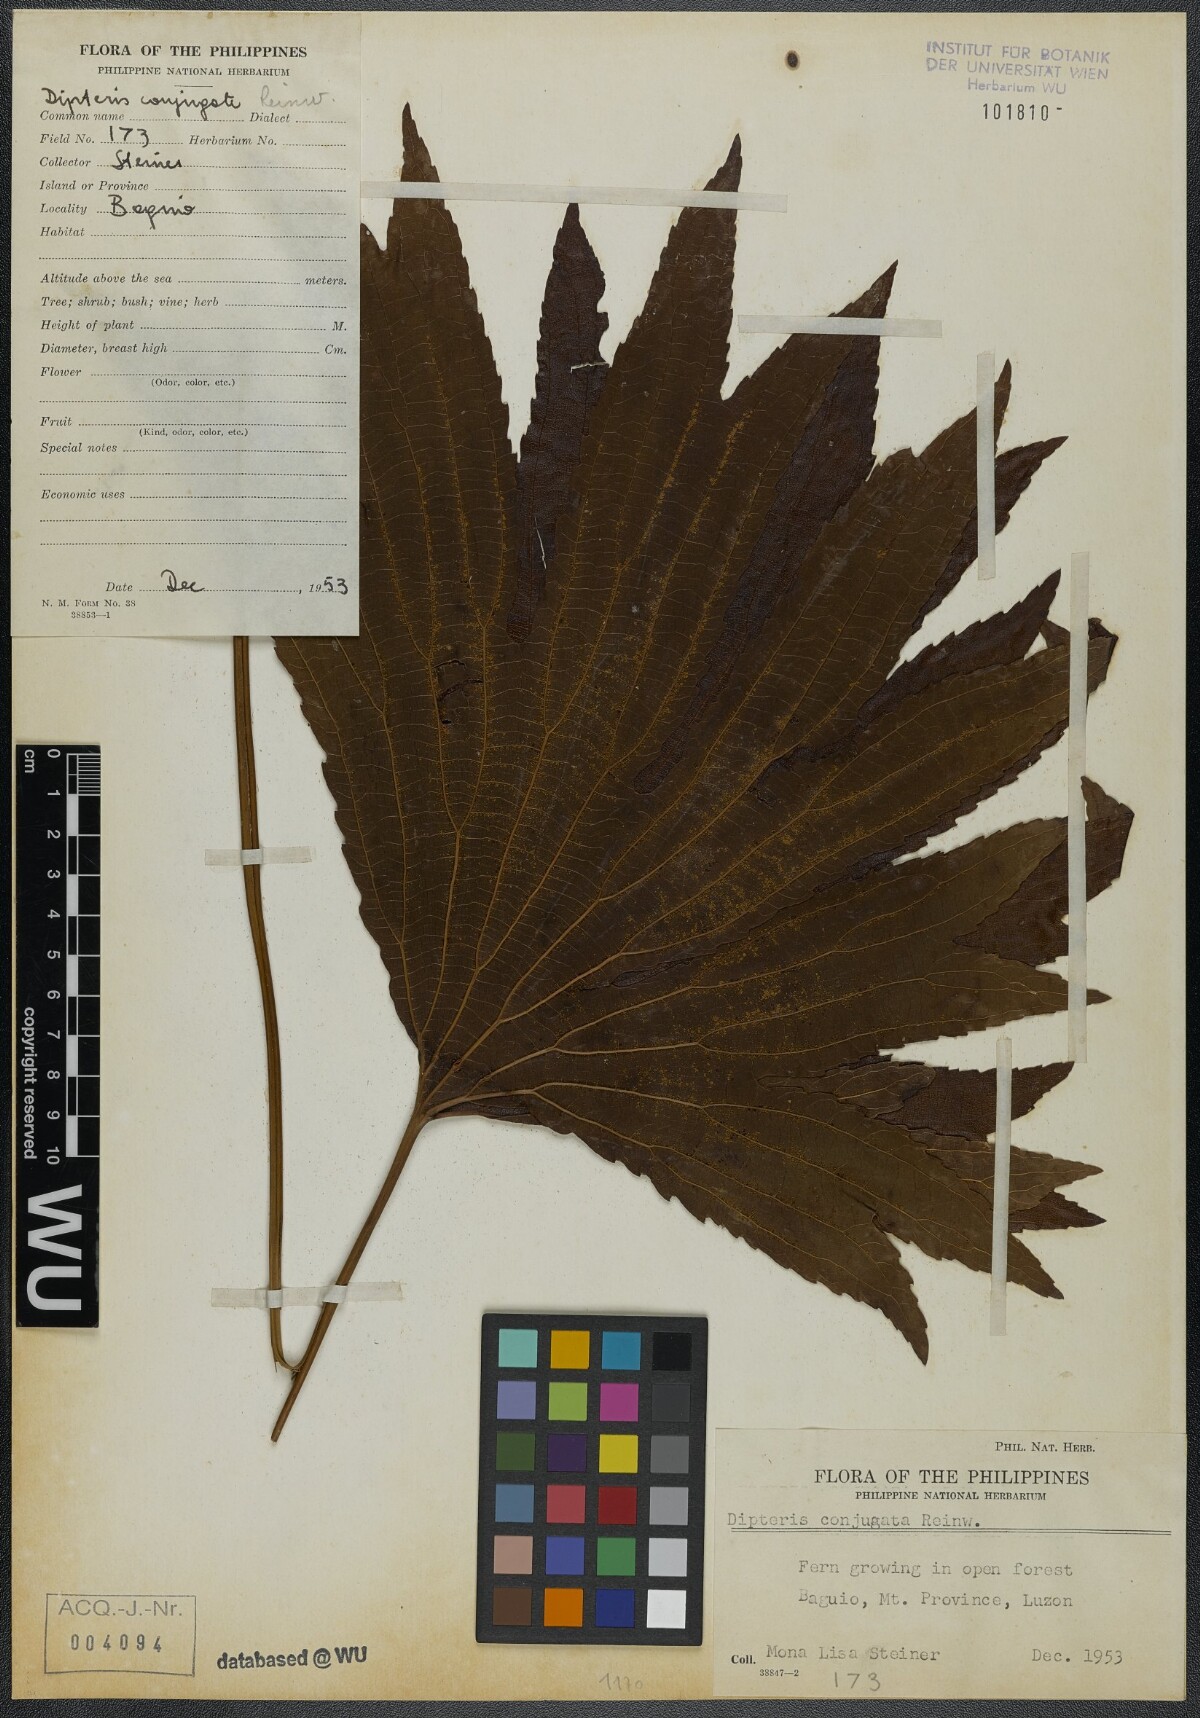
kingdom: Plantae
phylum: Tracheophyta
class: Polypodiopsida
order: Gleicheniales
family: Dipteridaceae
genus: Dipteris
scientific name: Dipteris conjugata
